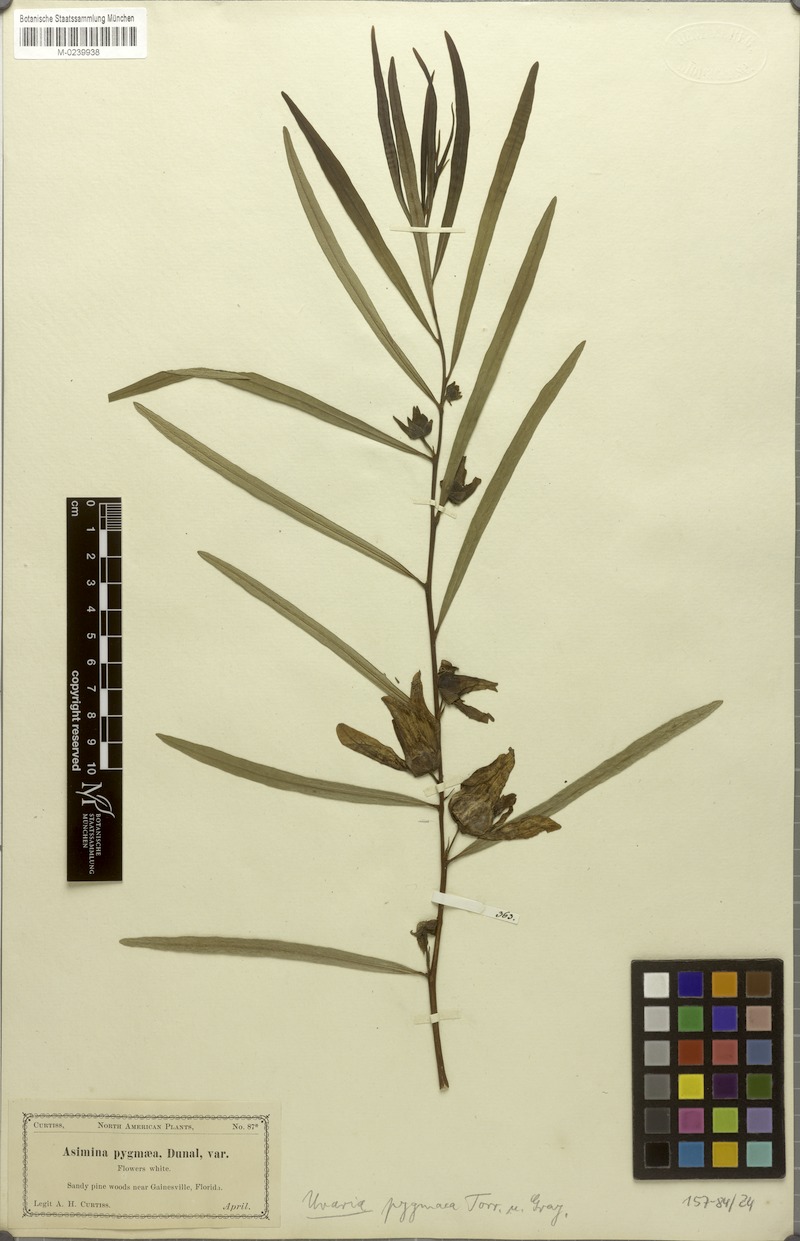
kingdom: Plantae
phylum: Tracheophyta
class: Magnoliopsida
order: Magnoliales
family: Annonaceae
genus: Asimina
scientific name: Asimina pygmaea
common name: Dwarf pawpaw
